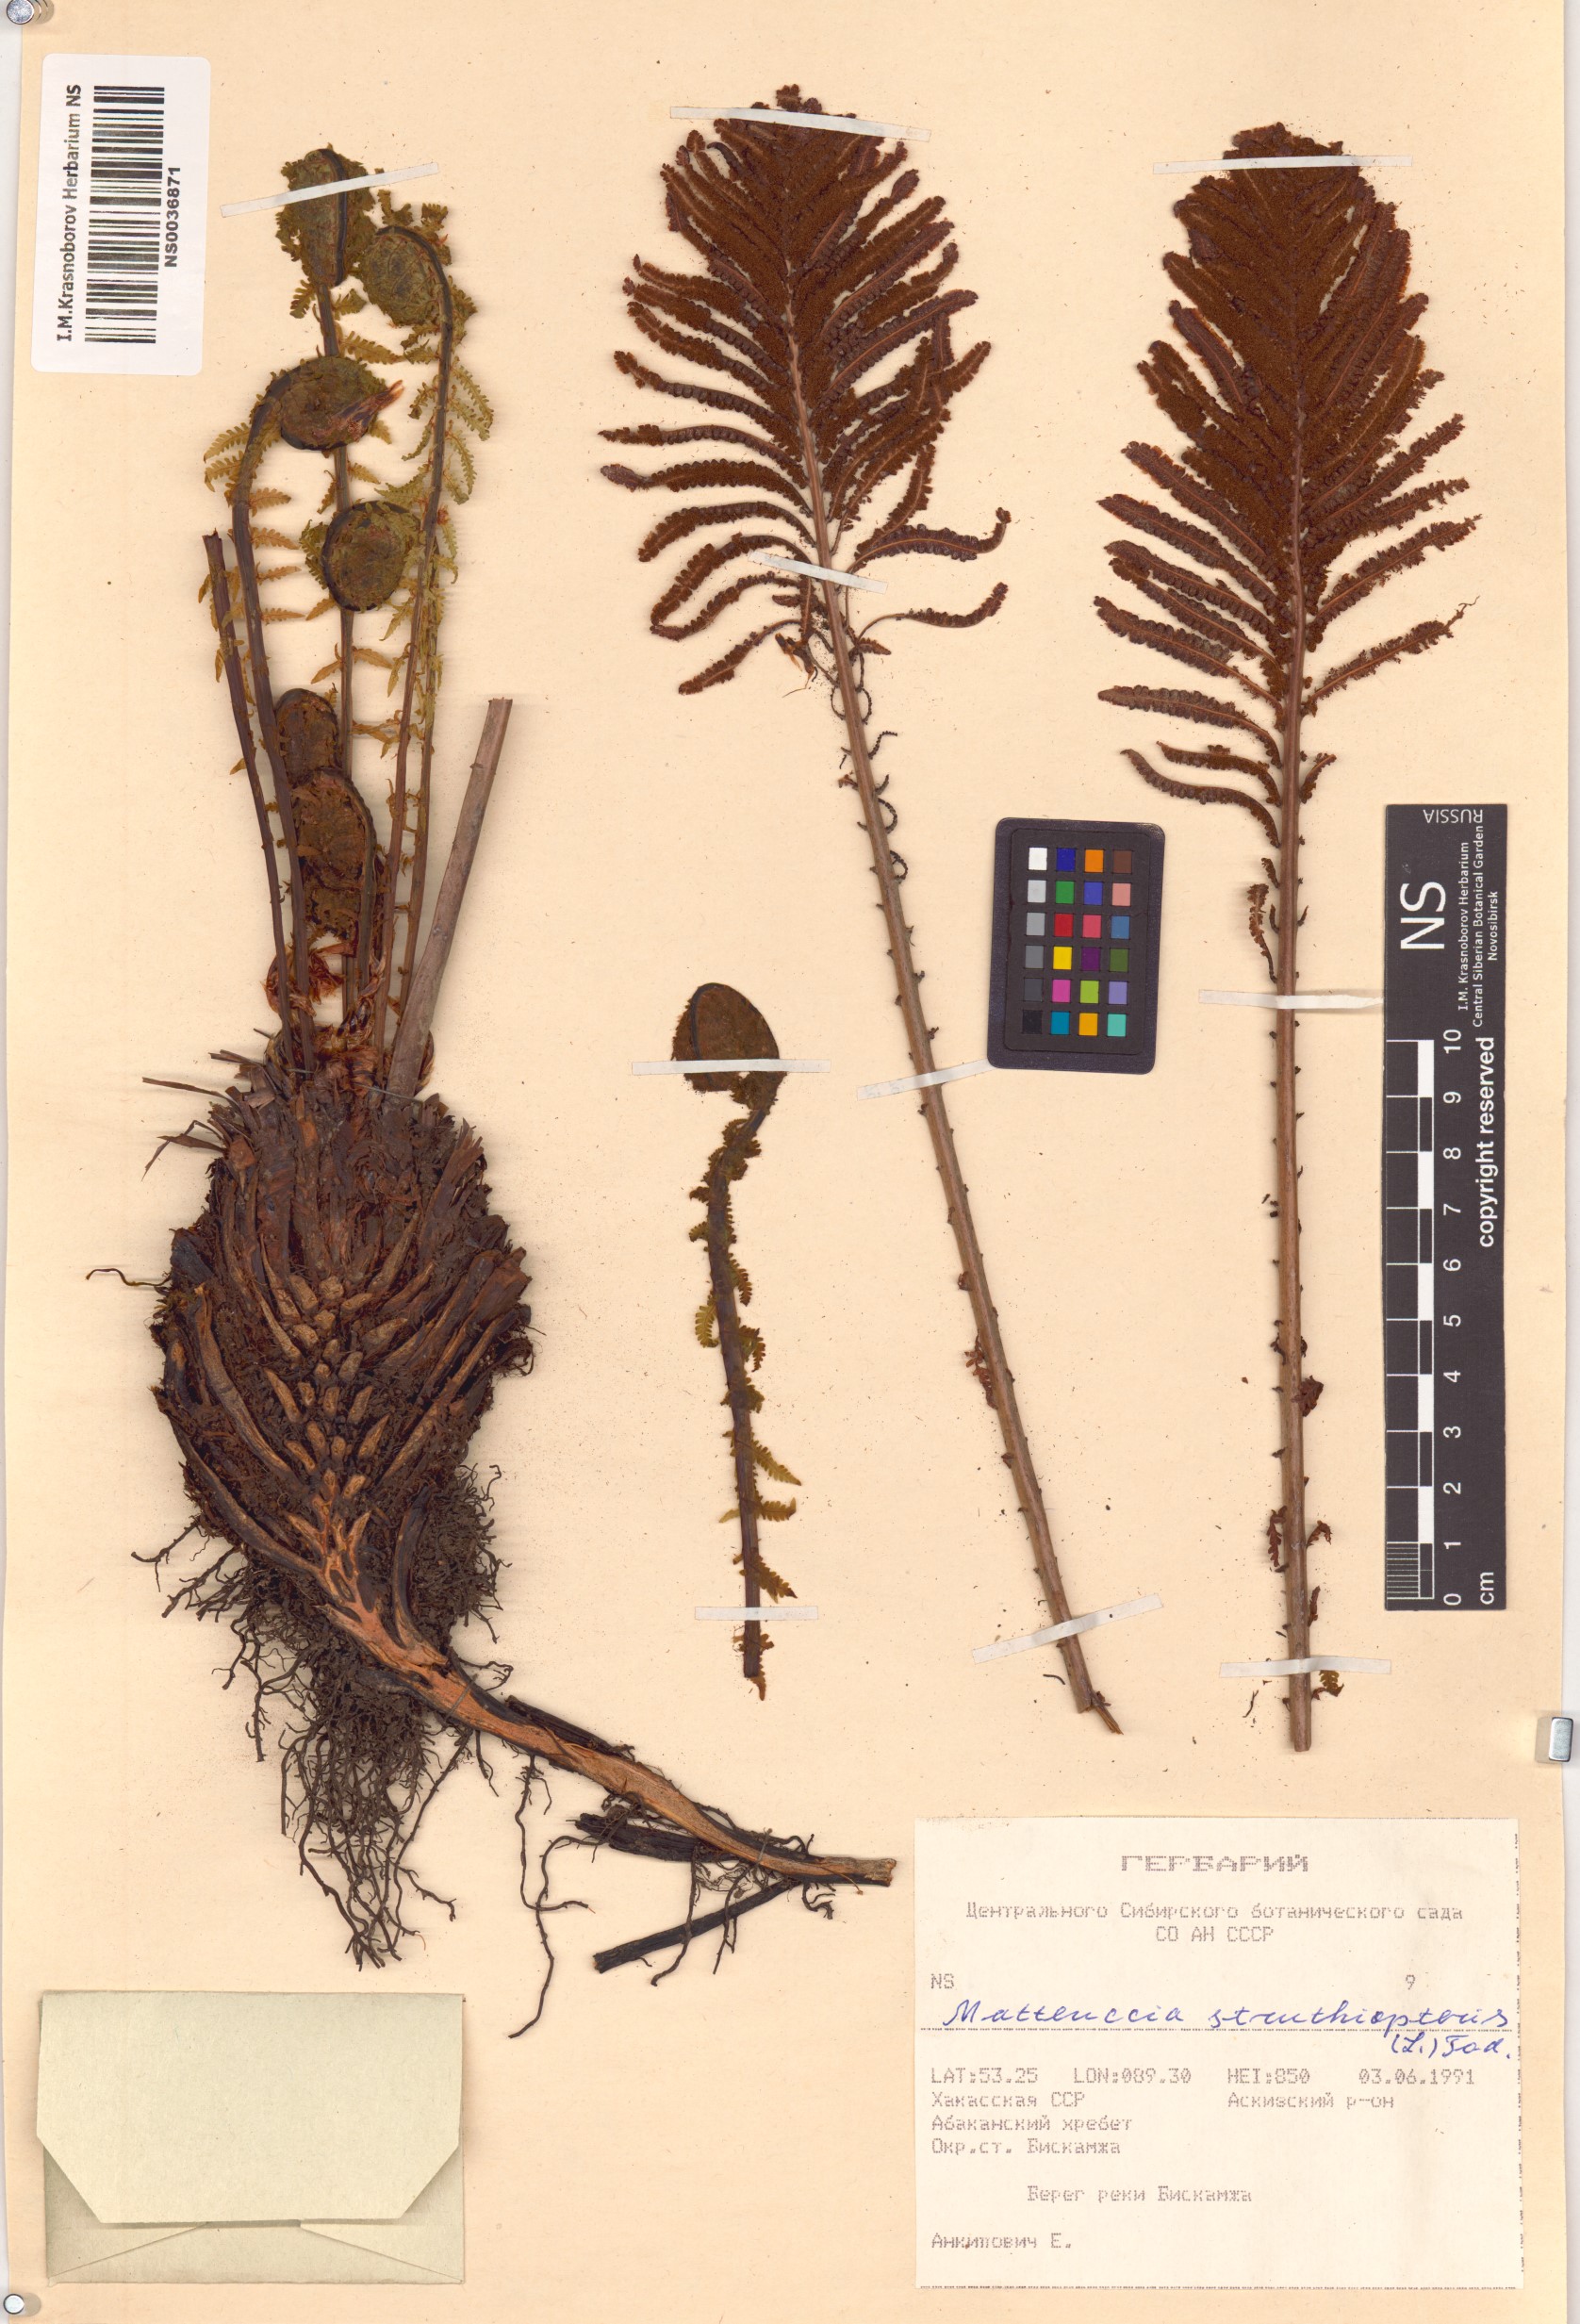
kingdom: Plantae
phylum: Tracheophyta
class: Polypodiopsida
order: Polypodiales
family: Onocleaceae
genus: Matteuccia
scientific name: Matteuccia struthiopteris
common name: Ostrich fern
